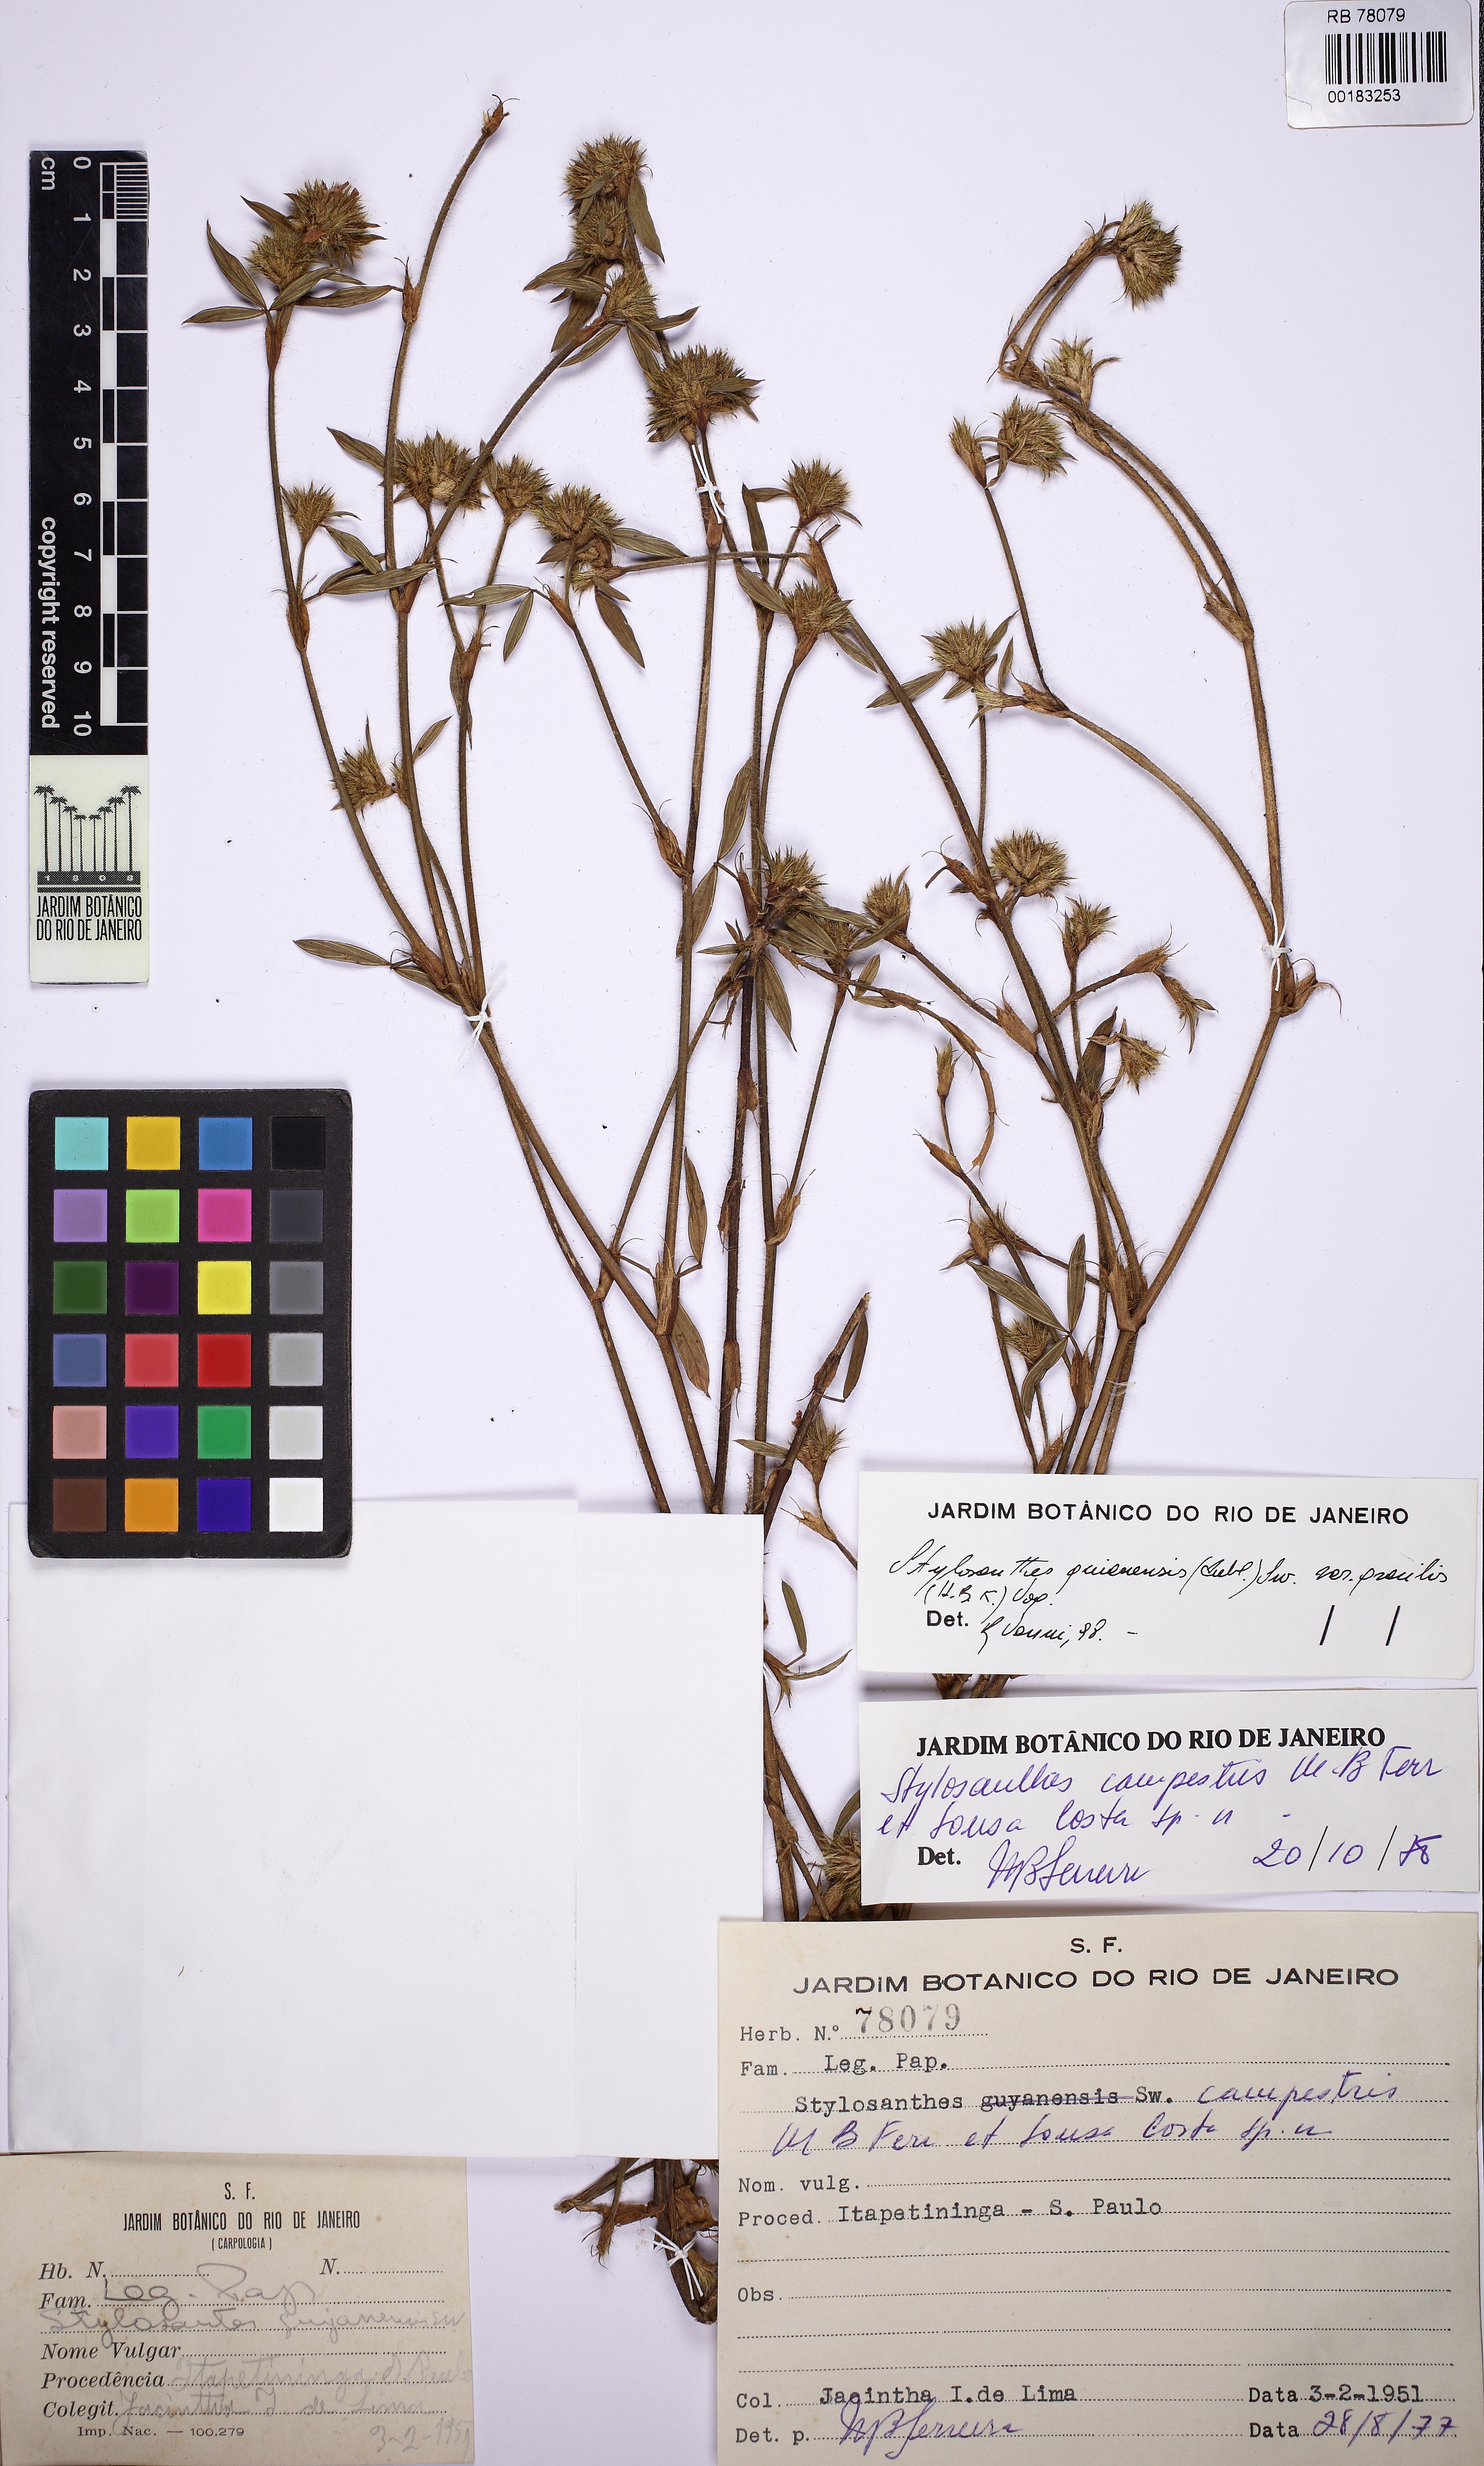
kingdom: Plantae
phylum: Tracheophyta
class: Magnoliopsida
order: Fabales
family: Fabaceae
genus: Stylosanthes
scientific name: Stylosanthes campestris
